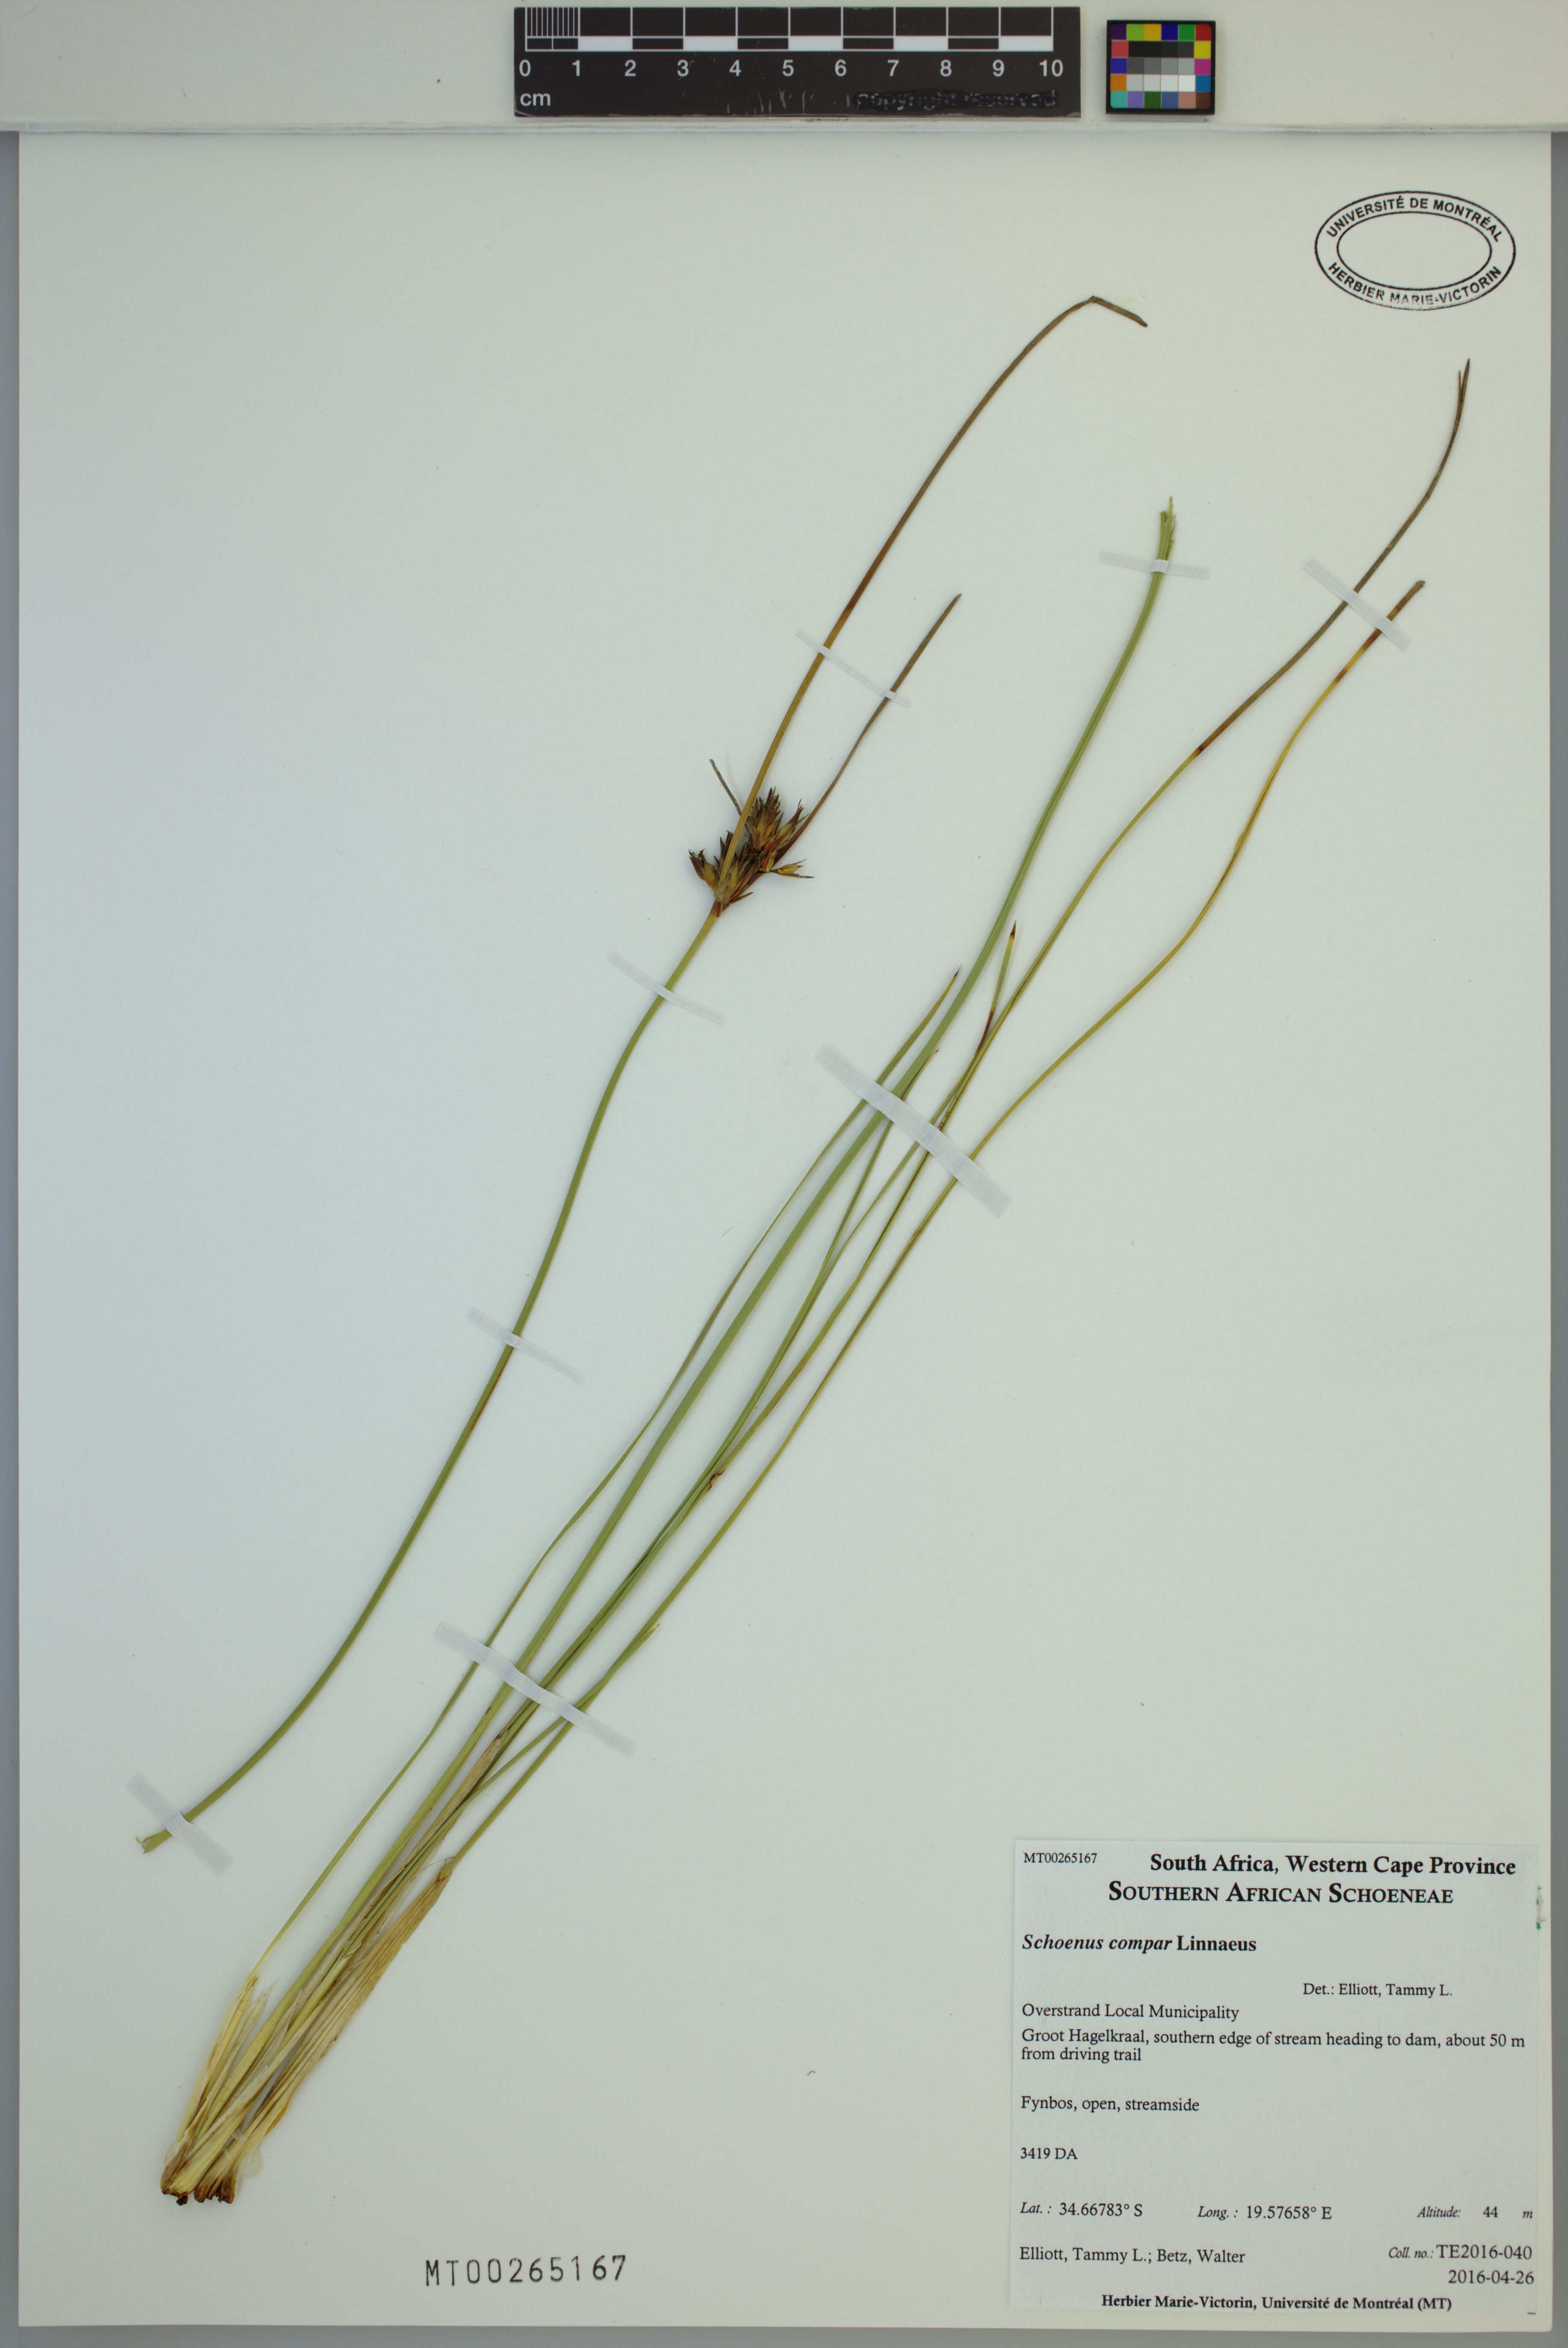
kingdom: Plantae
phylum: Tracheophyta
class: Liliopsida
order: Poales
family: Cyperaceae
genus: Schoenus
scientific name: Schoenus compar
